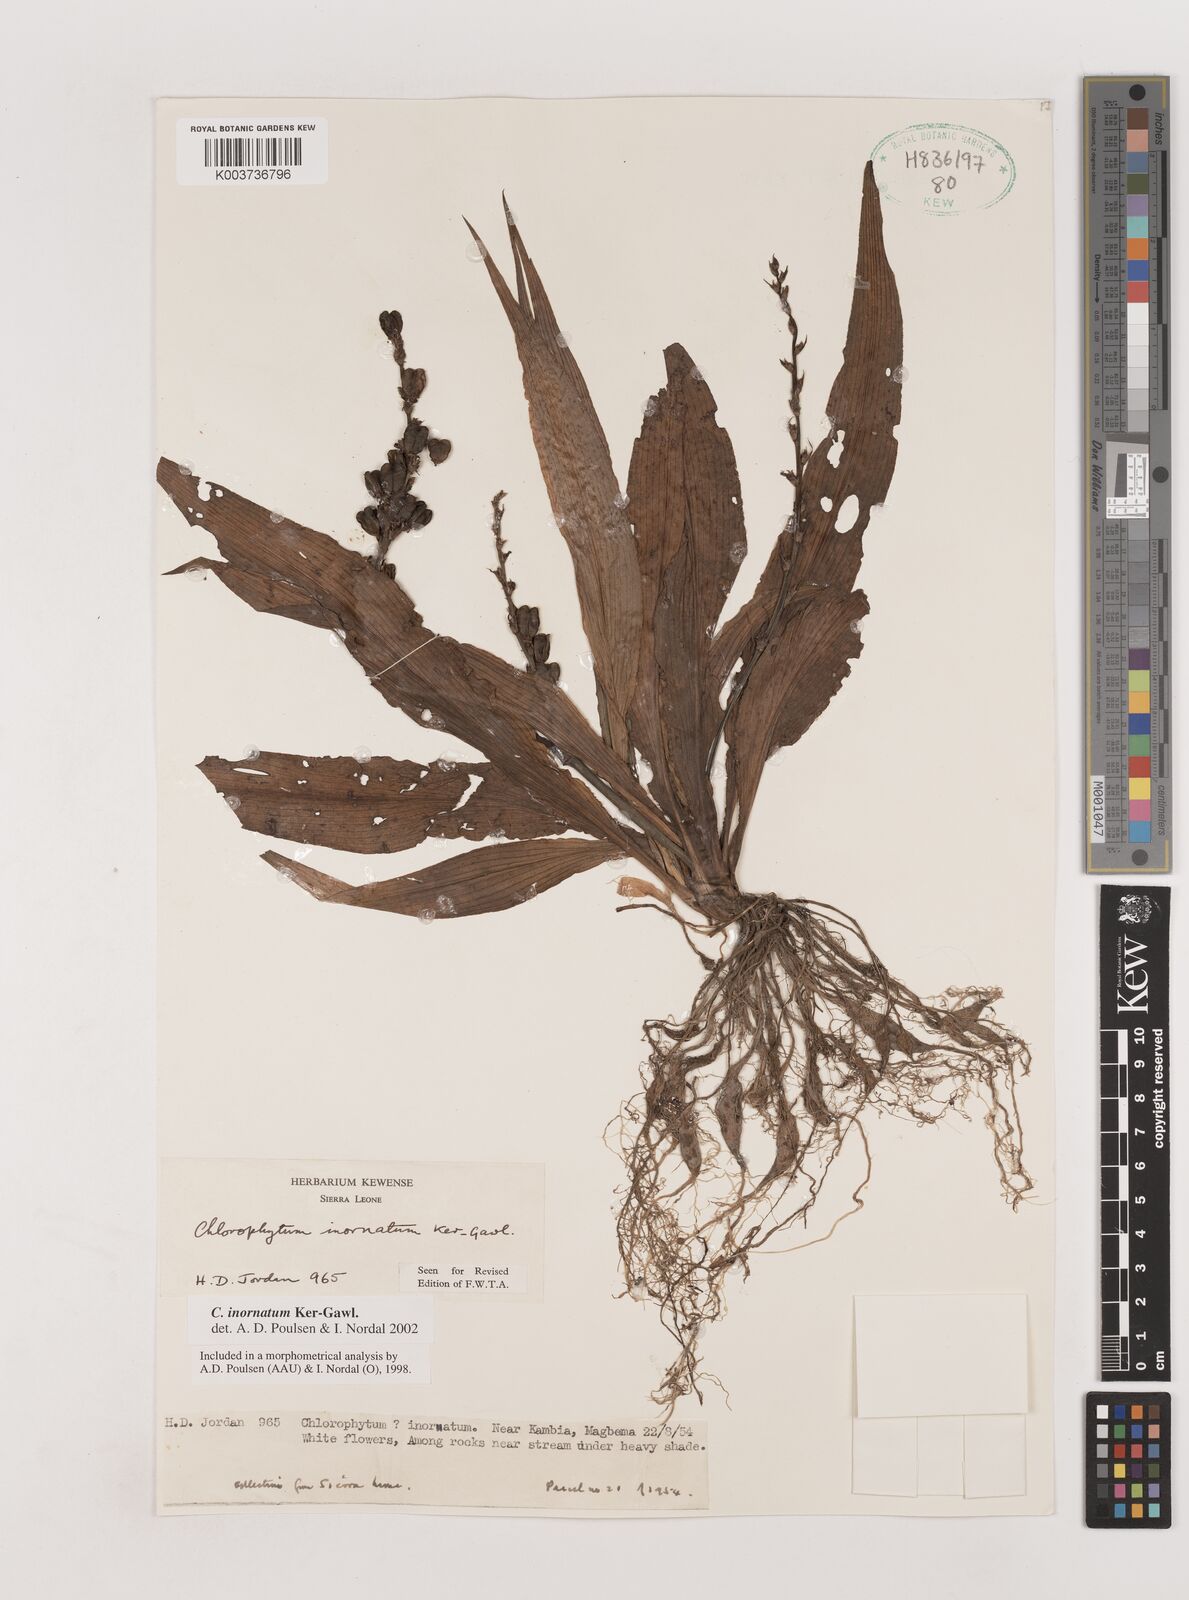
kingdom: Plantae
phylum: Tracheophyta
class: Liliopsida
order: Asparagales
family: Asparagaceae
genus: Chlorophytum
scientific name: Chlorophytum inornatum
